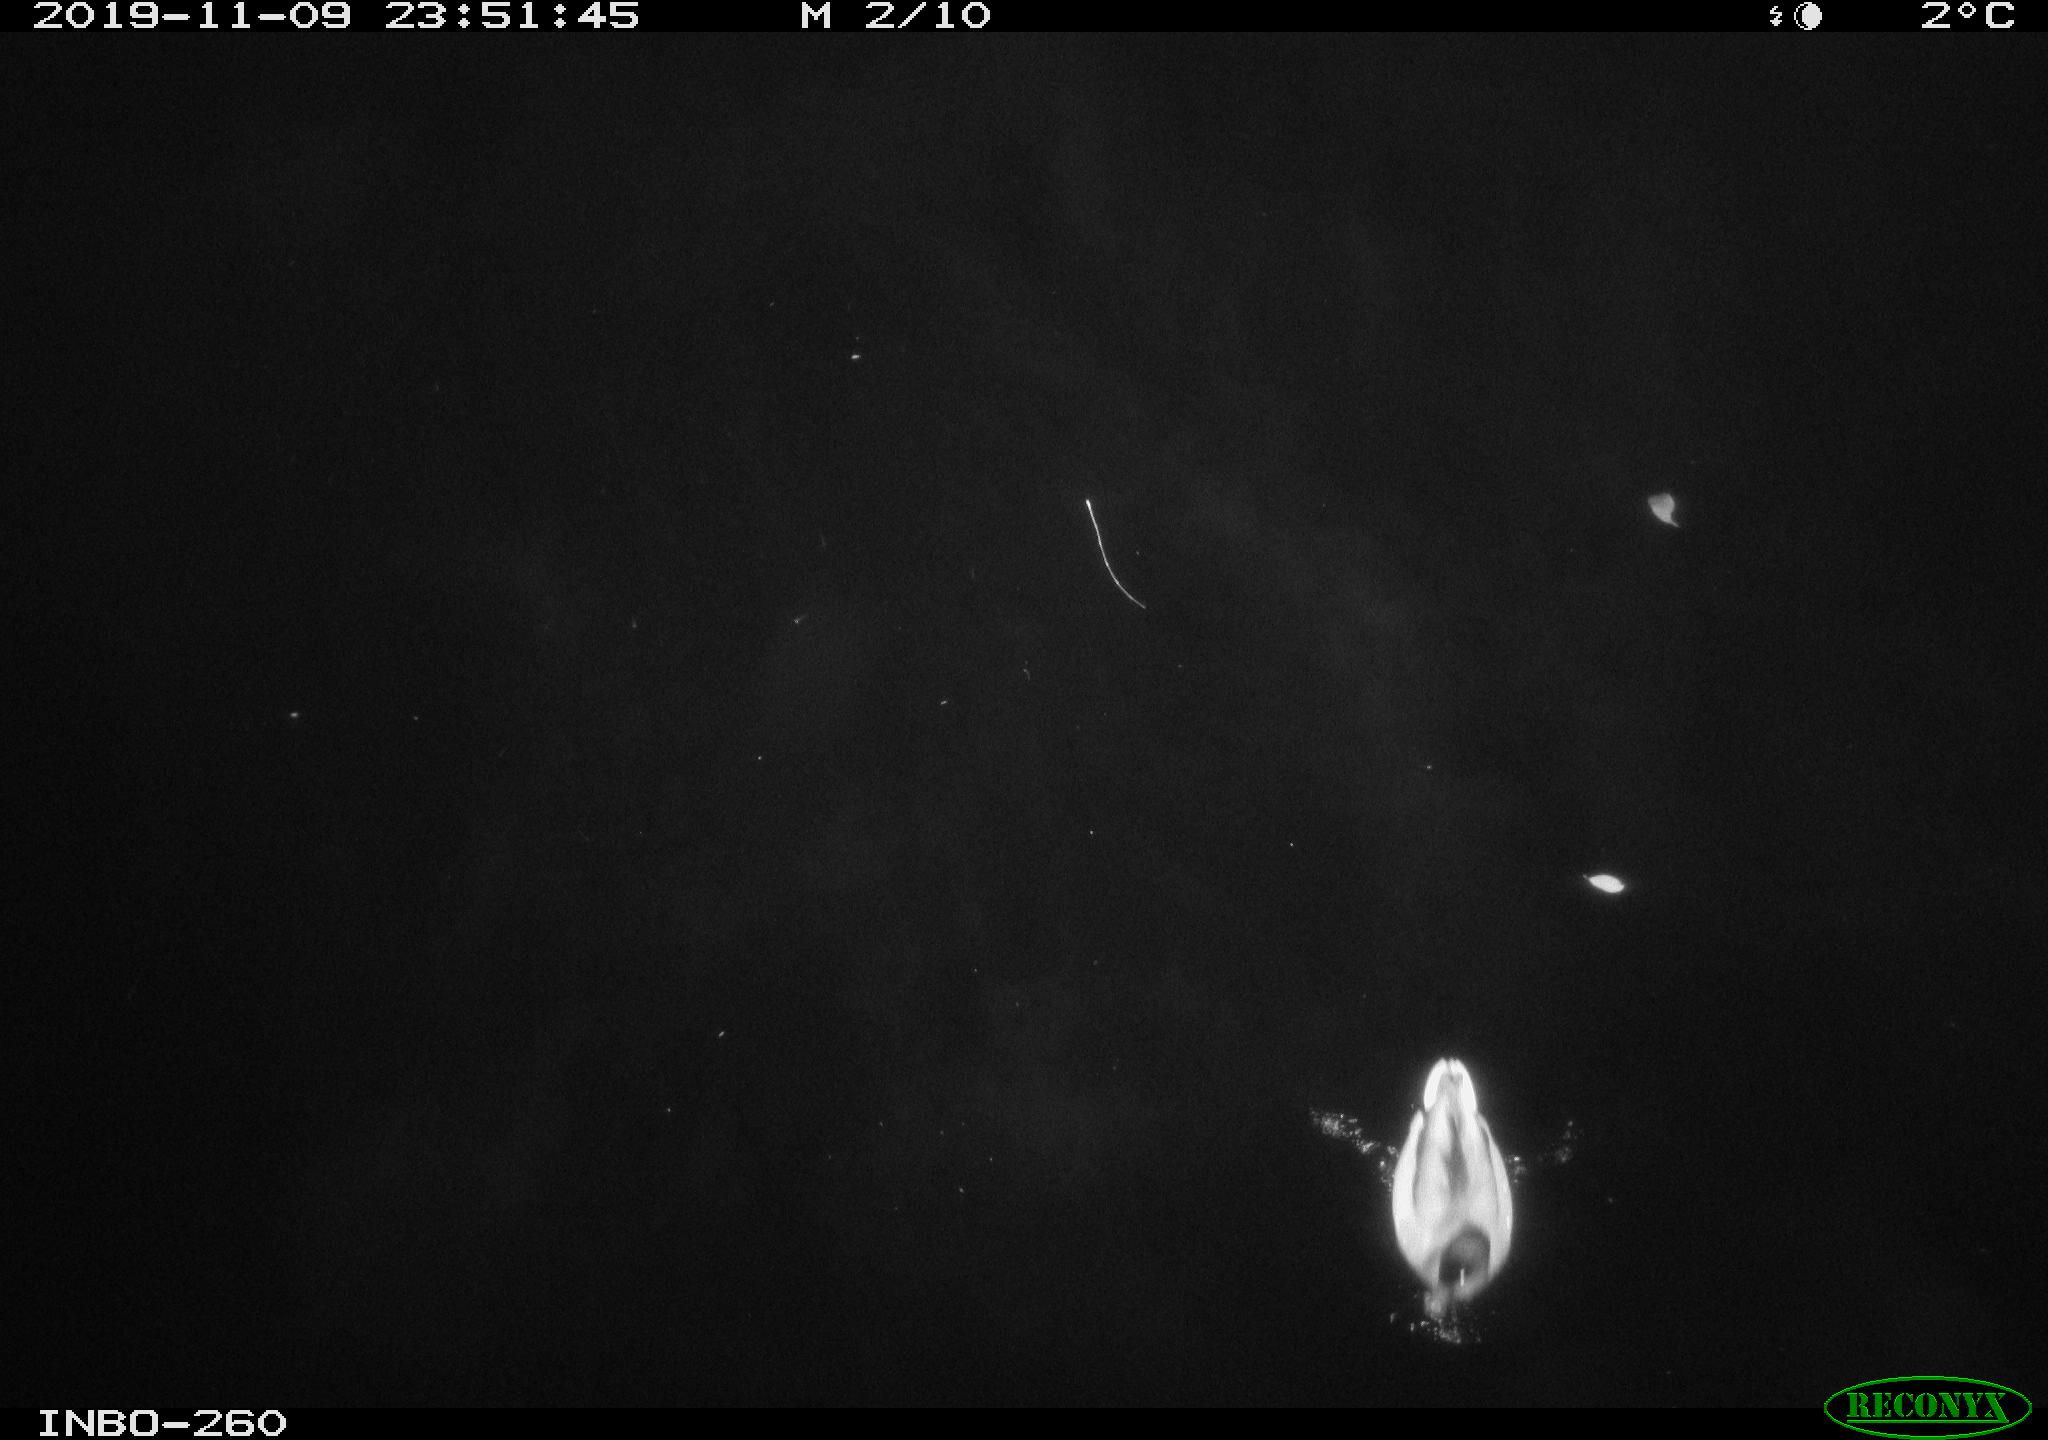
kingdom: Animalia
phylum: Chordata
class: Aves
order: Anseriformes
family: Anatidae
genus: Anas
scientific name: Anas platyrhynchos
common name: Mallard
